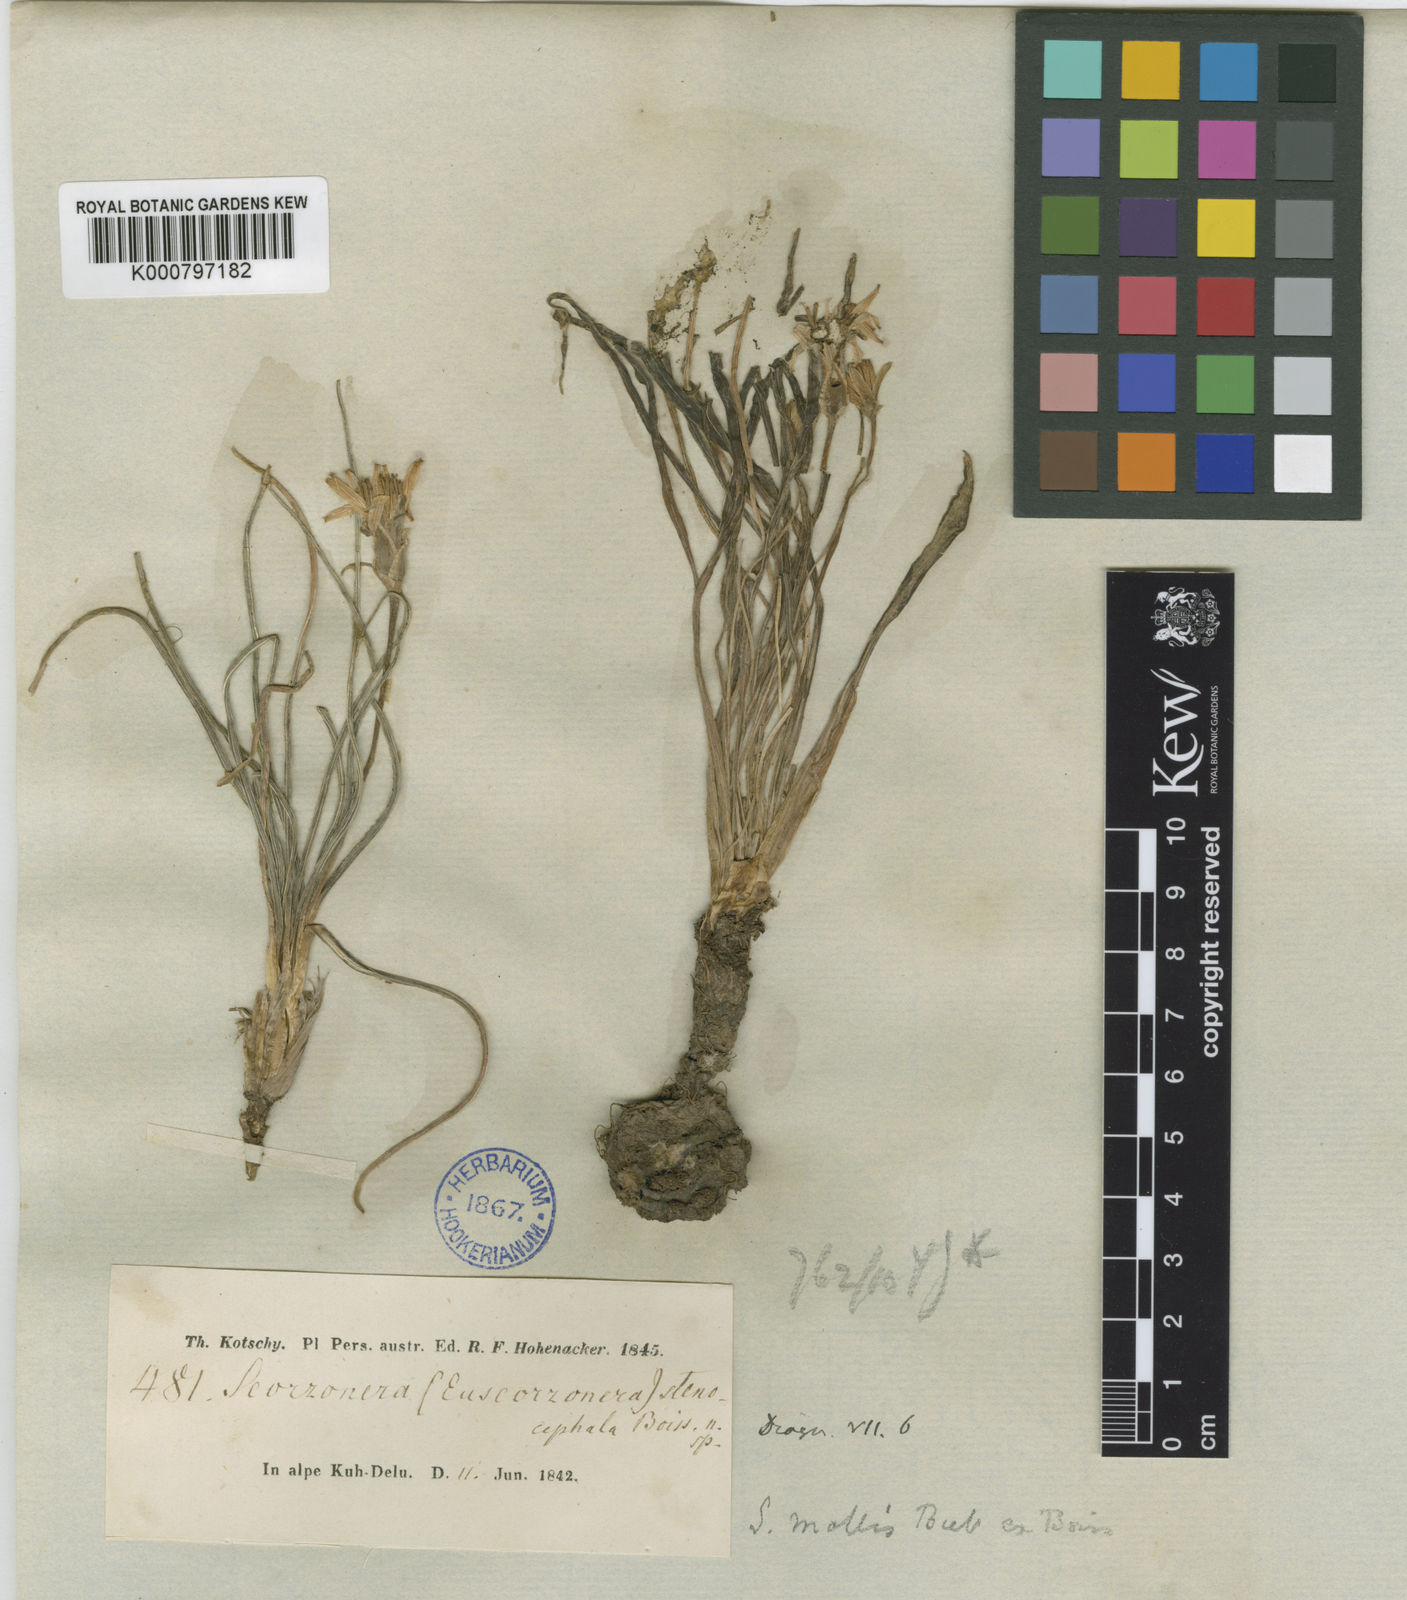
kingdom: Plantae
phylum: Tracheophyta
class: Magnoliopsida
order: Asterales
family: Asteraceae
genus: Candollea
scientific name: Candollea mollis
